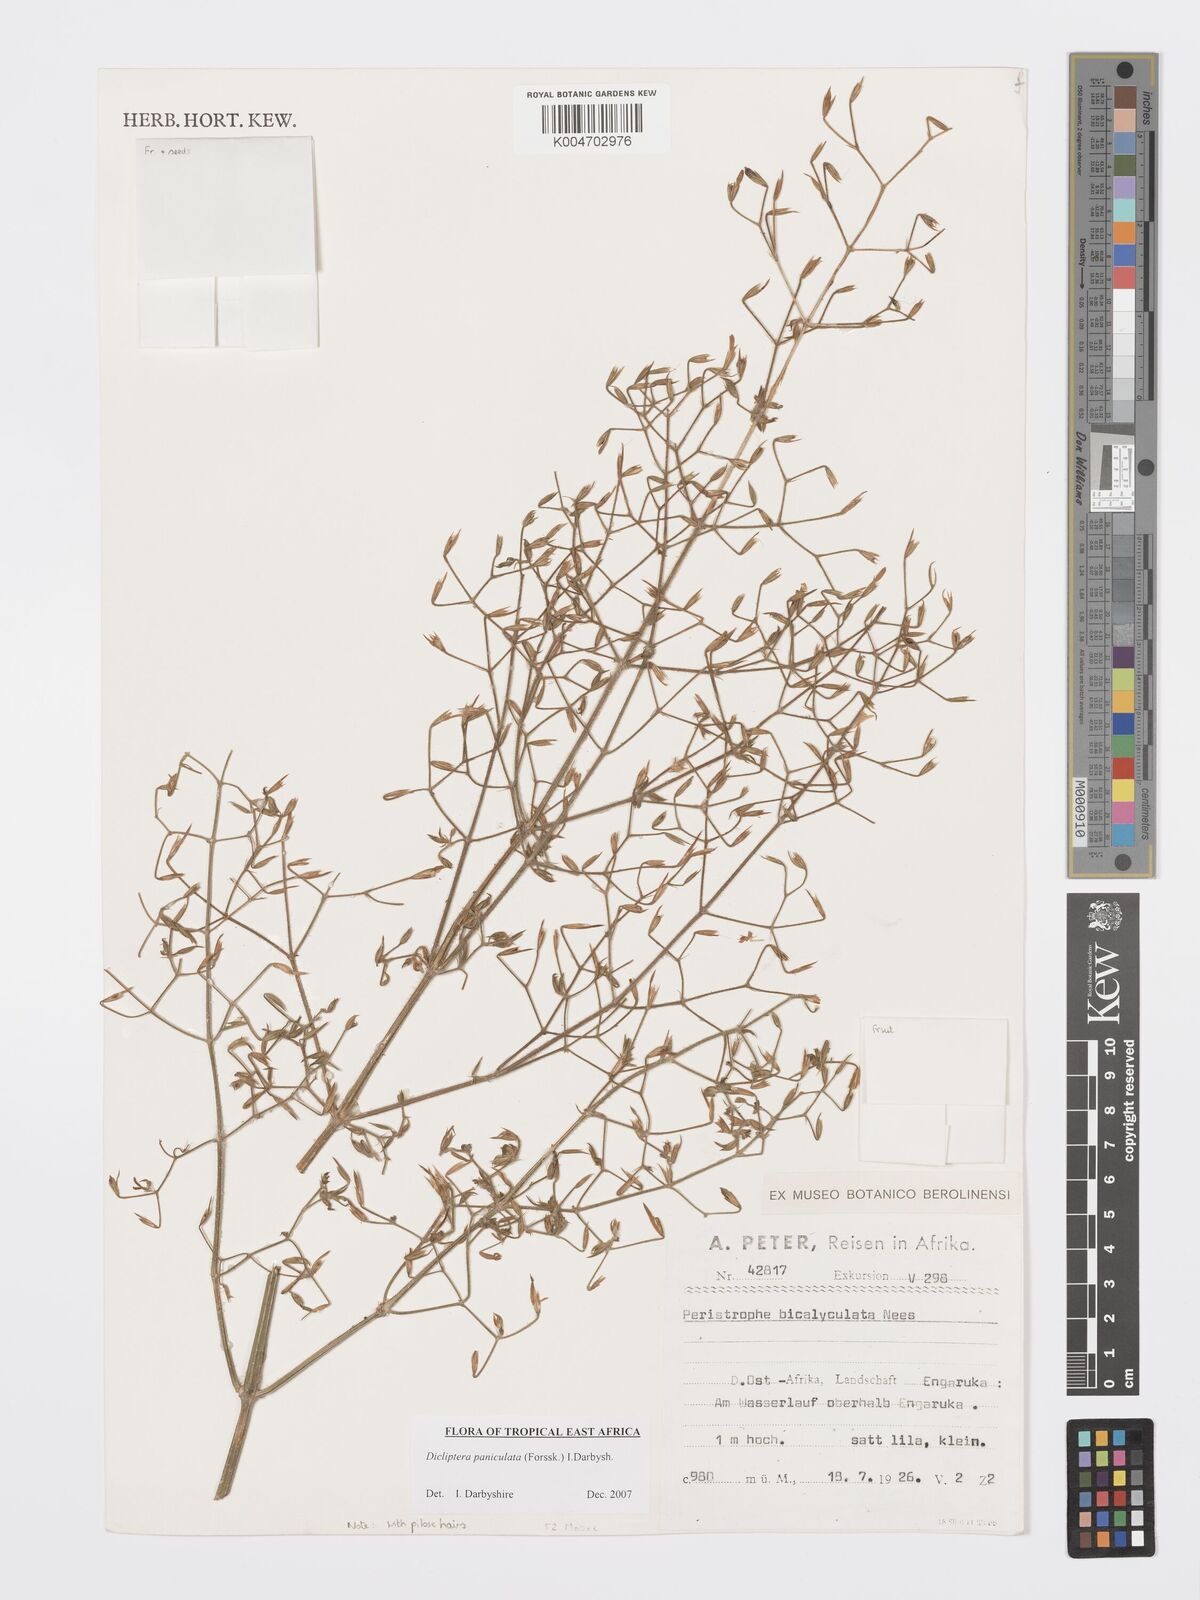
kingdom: Plantae
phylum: Tracheophyta
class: Magnoliopsida
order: Lamiales
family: Acanthaceae
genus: Dicliptera
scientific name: Dicliptera paniculata
